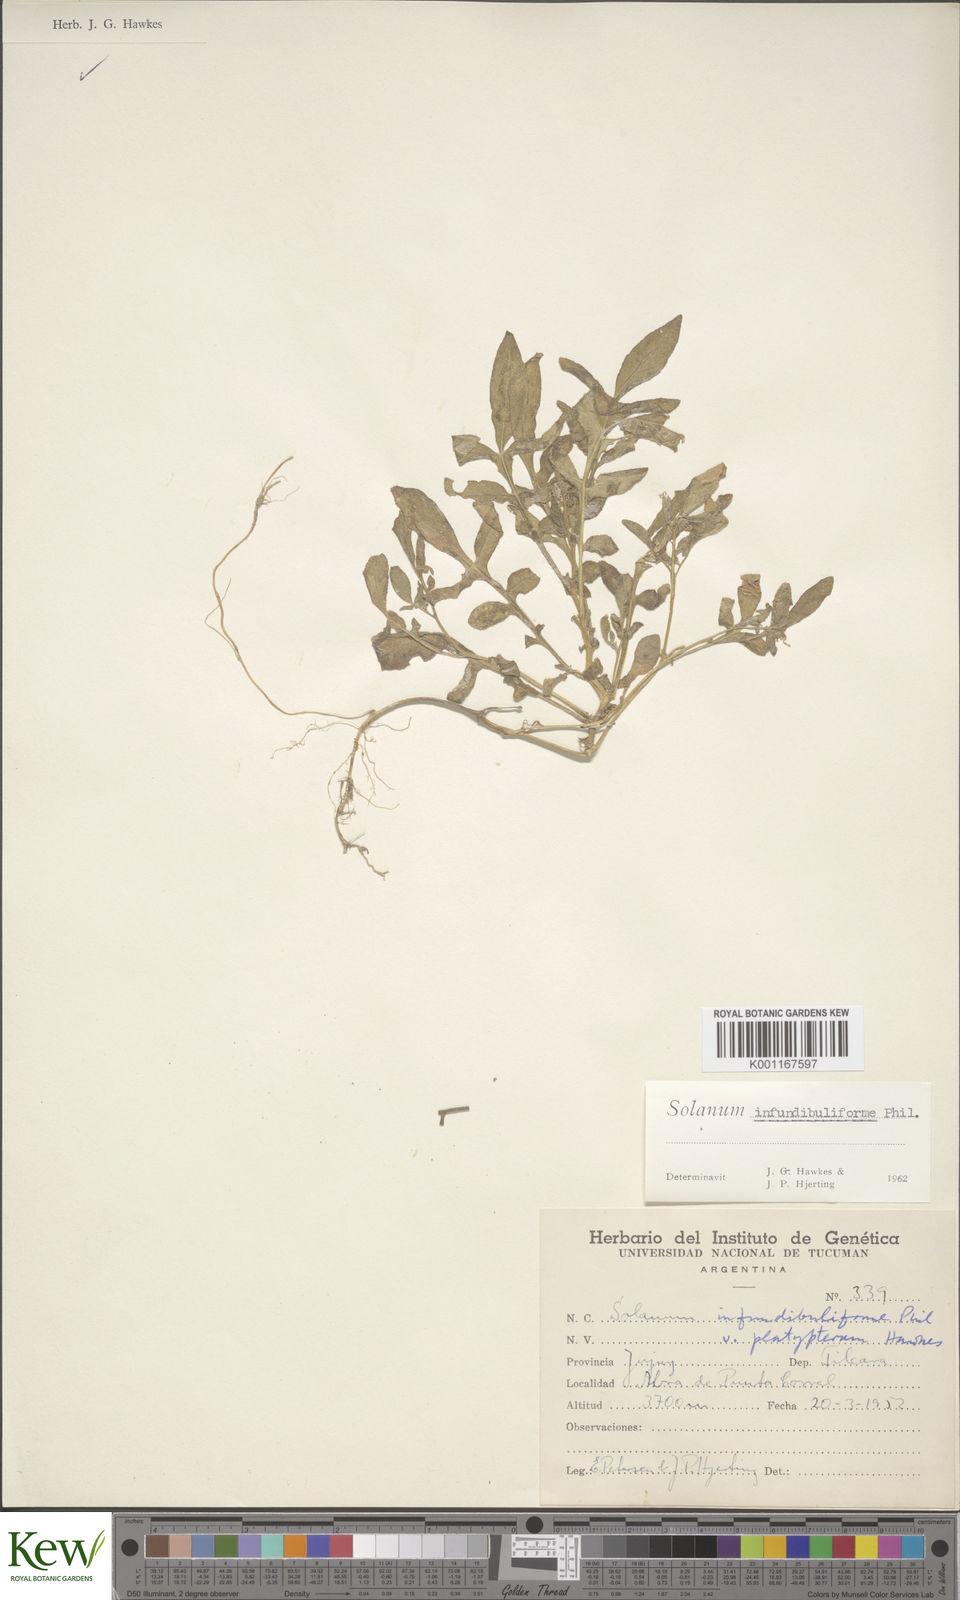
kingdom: Plantae
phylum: Tracheophyta
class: Magnoliopsida
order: Solanales
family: Solanaceae
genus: Solanum
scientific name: Solanum infundibuliforme
